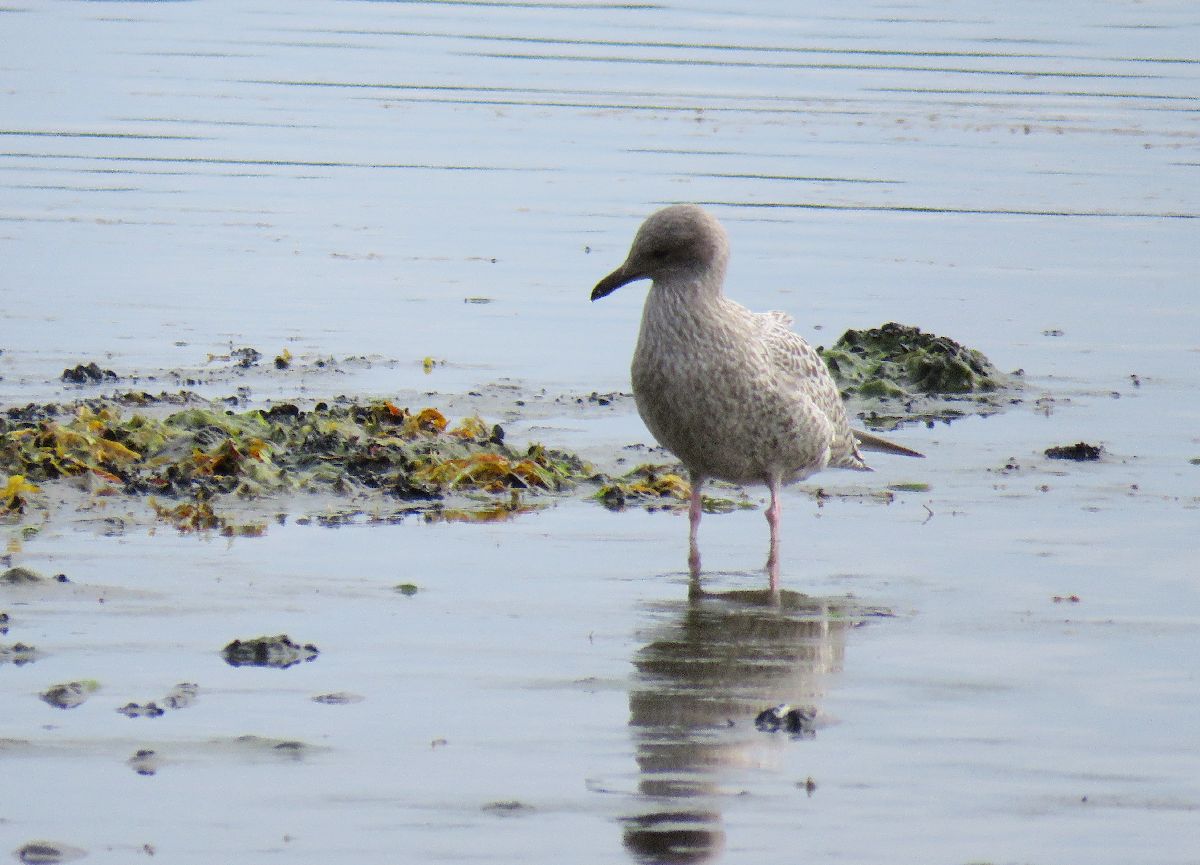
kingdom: Animalia
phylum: Chordata
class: Aves
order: Charadriiformes
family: Laridae
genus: Larus
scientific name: Larus marinus
